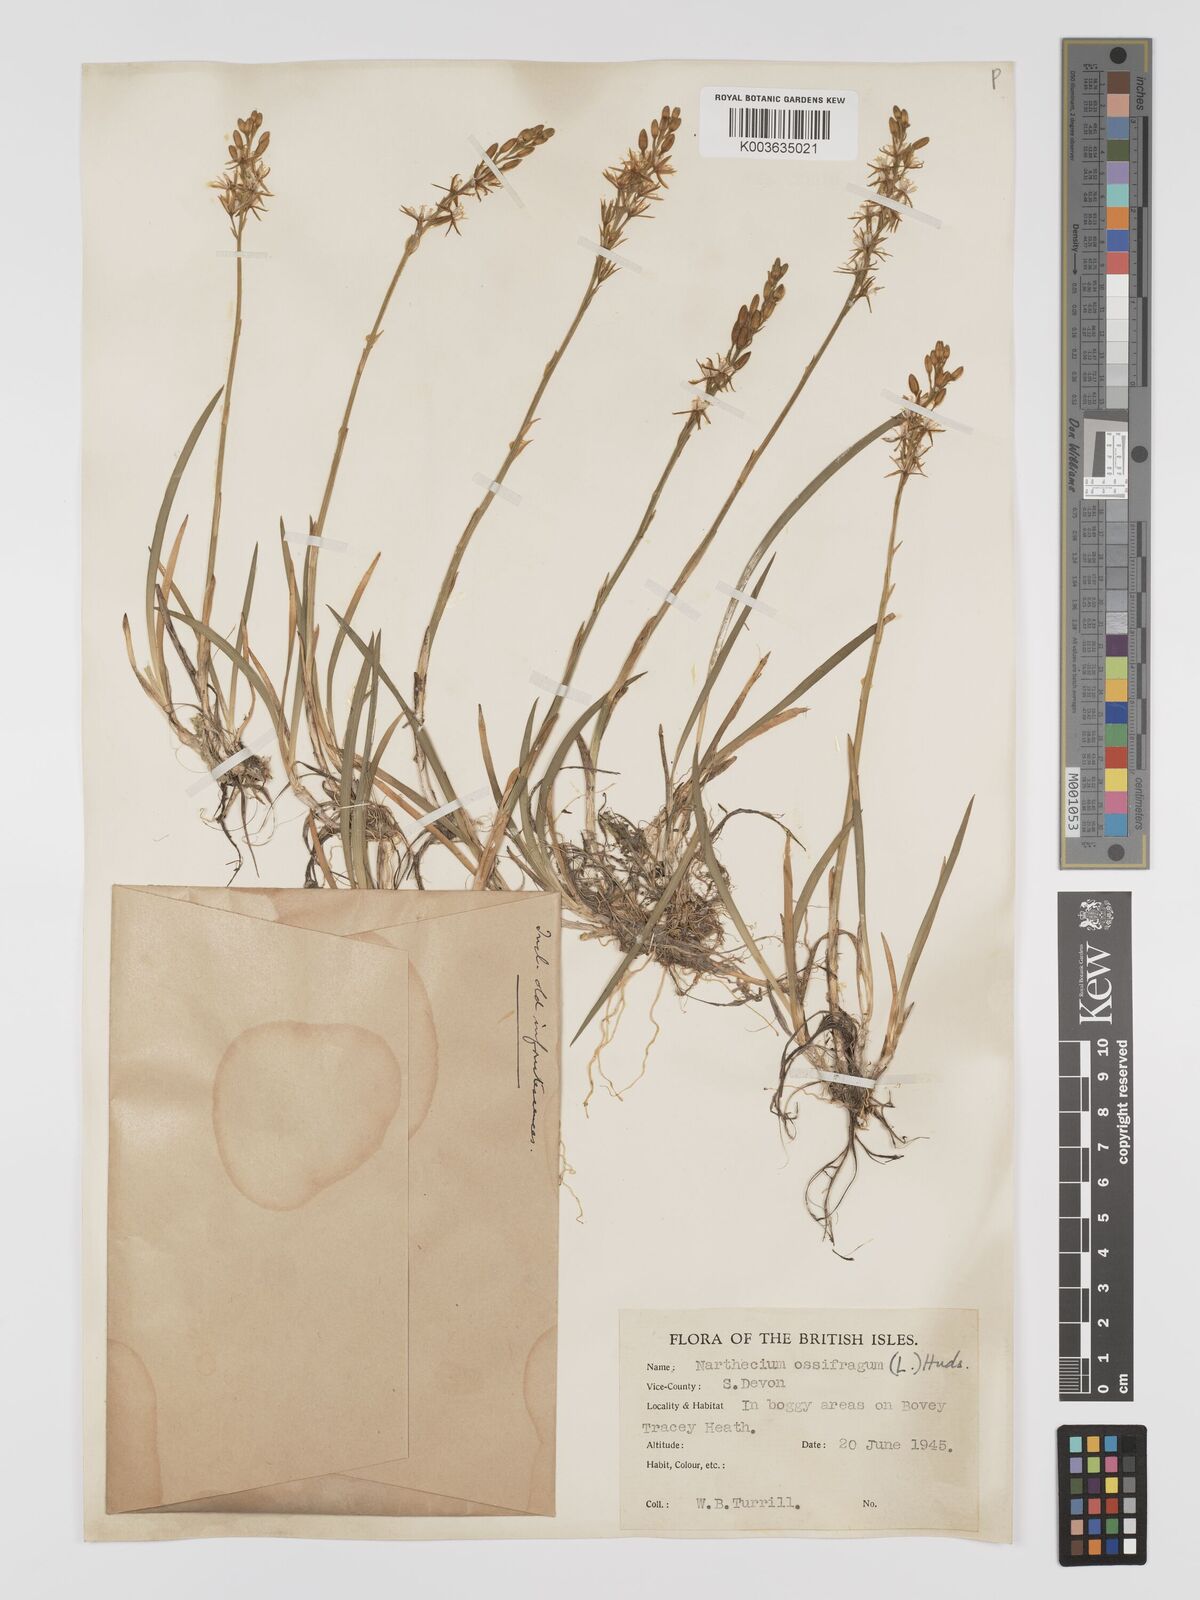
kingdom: Plantae
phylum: Tracheophyta
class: Liliopsida
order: Dioscoreales
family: Nartheciaceae
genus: Narthecium
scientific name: Narthecium ossifragum
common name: Bog asphodel
